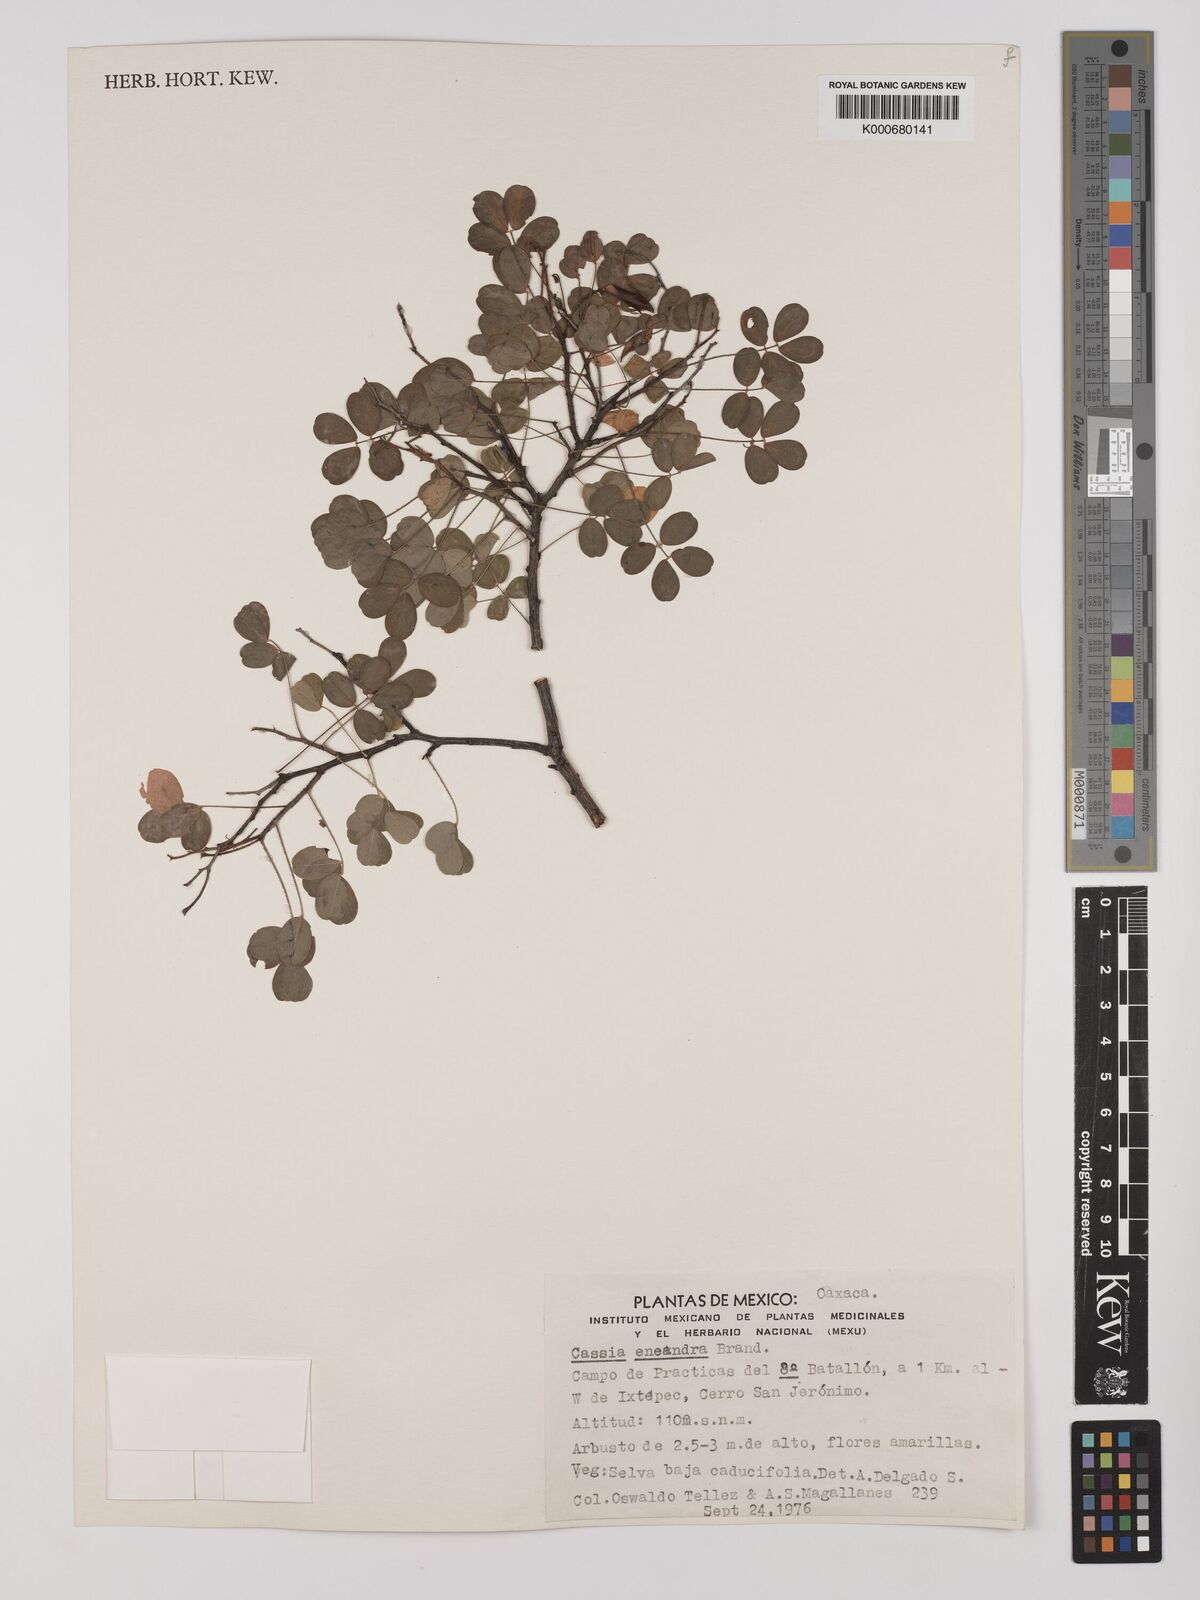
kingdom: Plantae
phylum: Tracheophyta
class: Magnoliopsida
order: Fabales
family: Fabaceae
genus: Chamaecrista
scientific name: Chamaecrista zygophylloides
